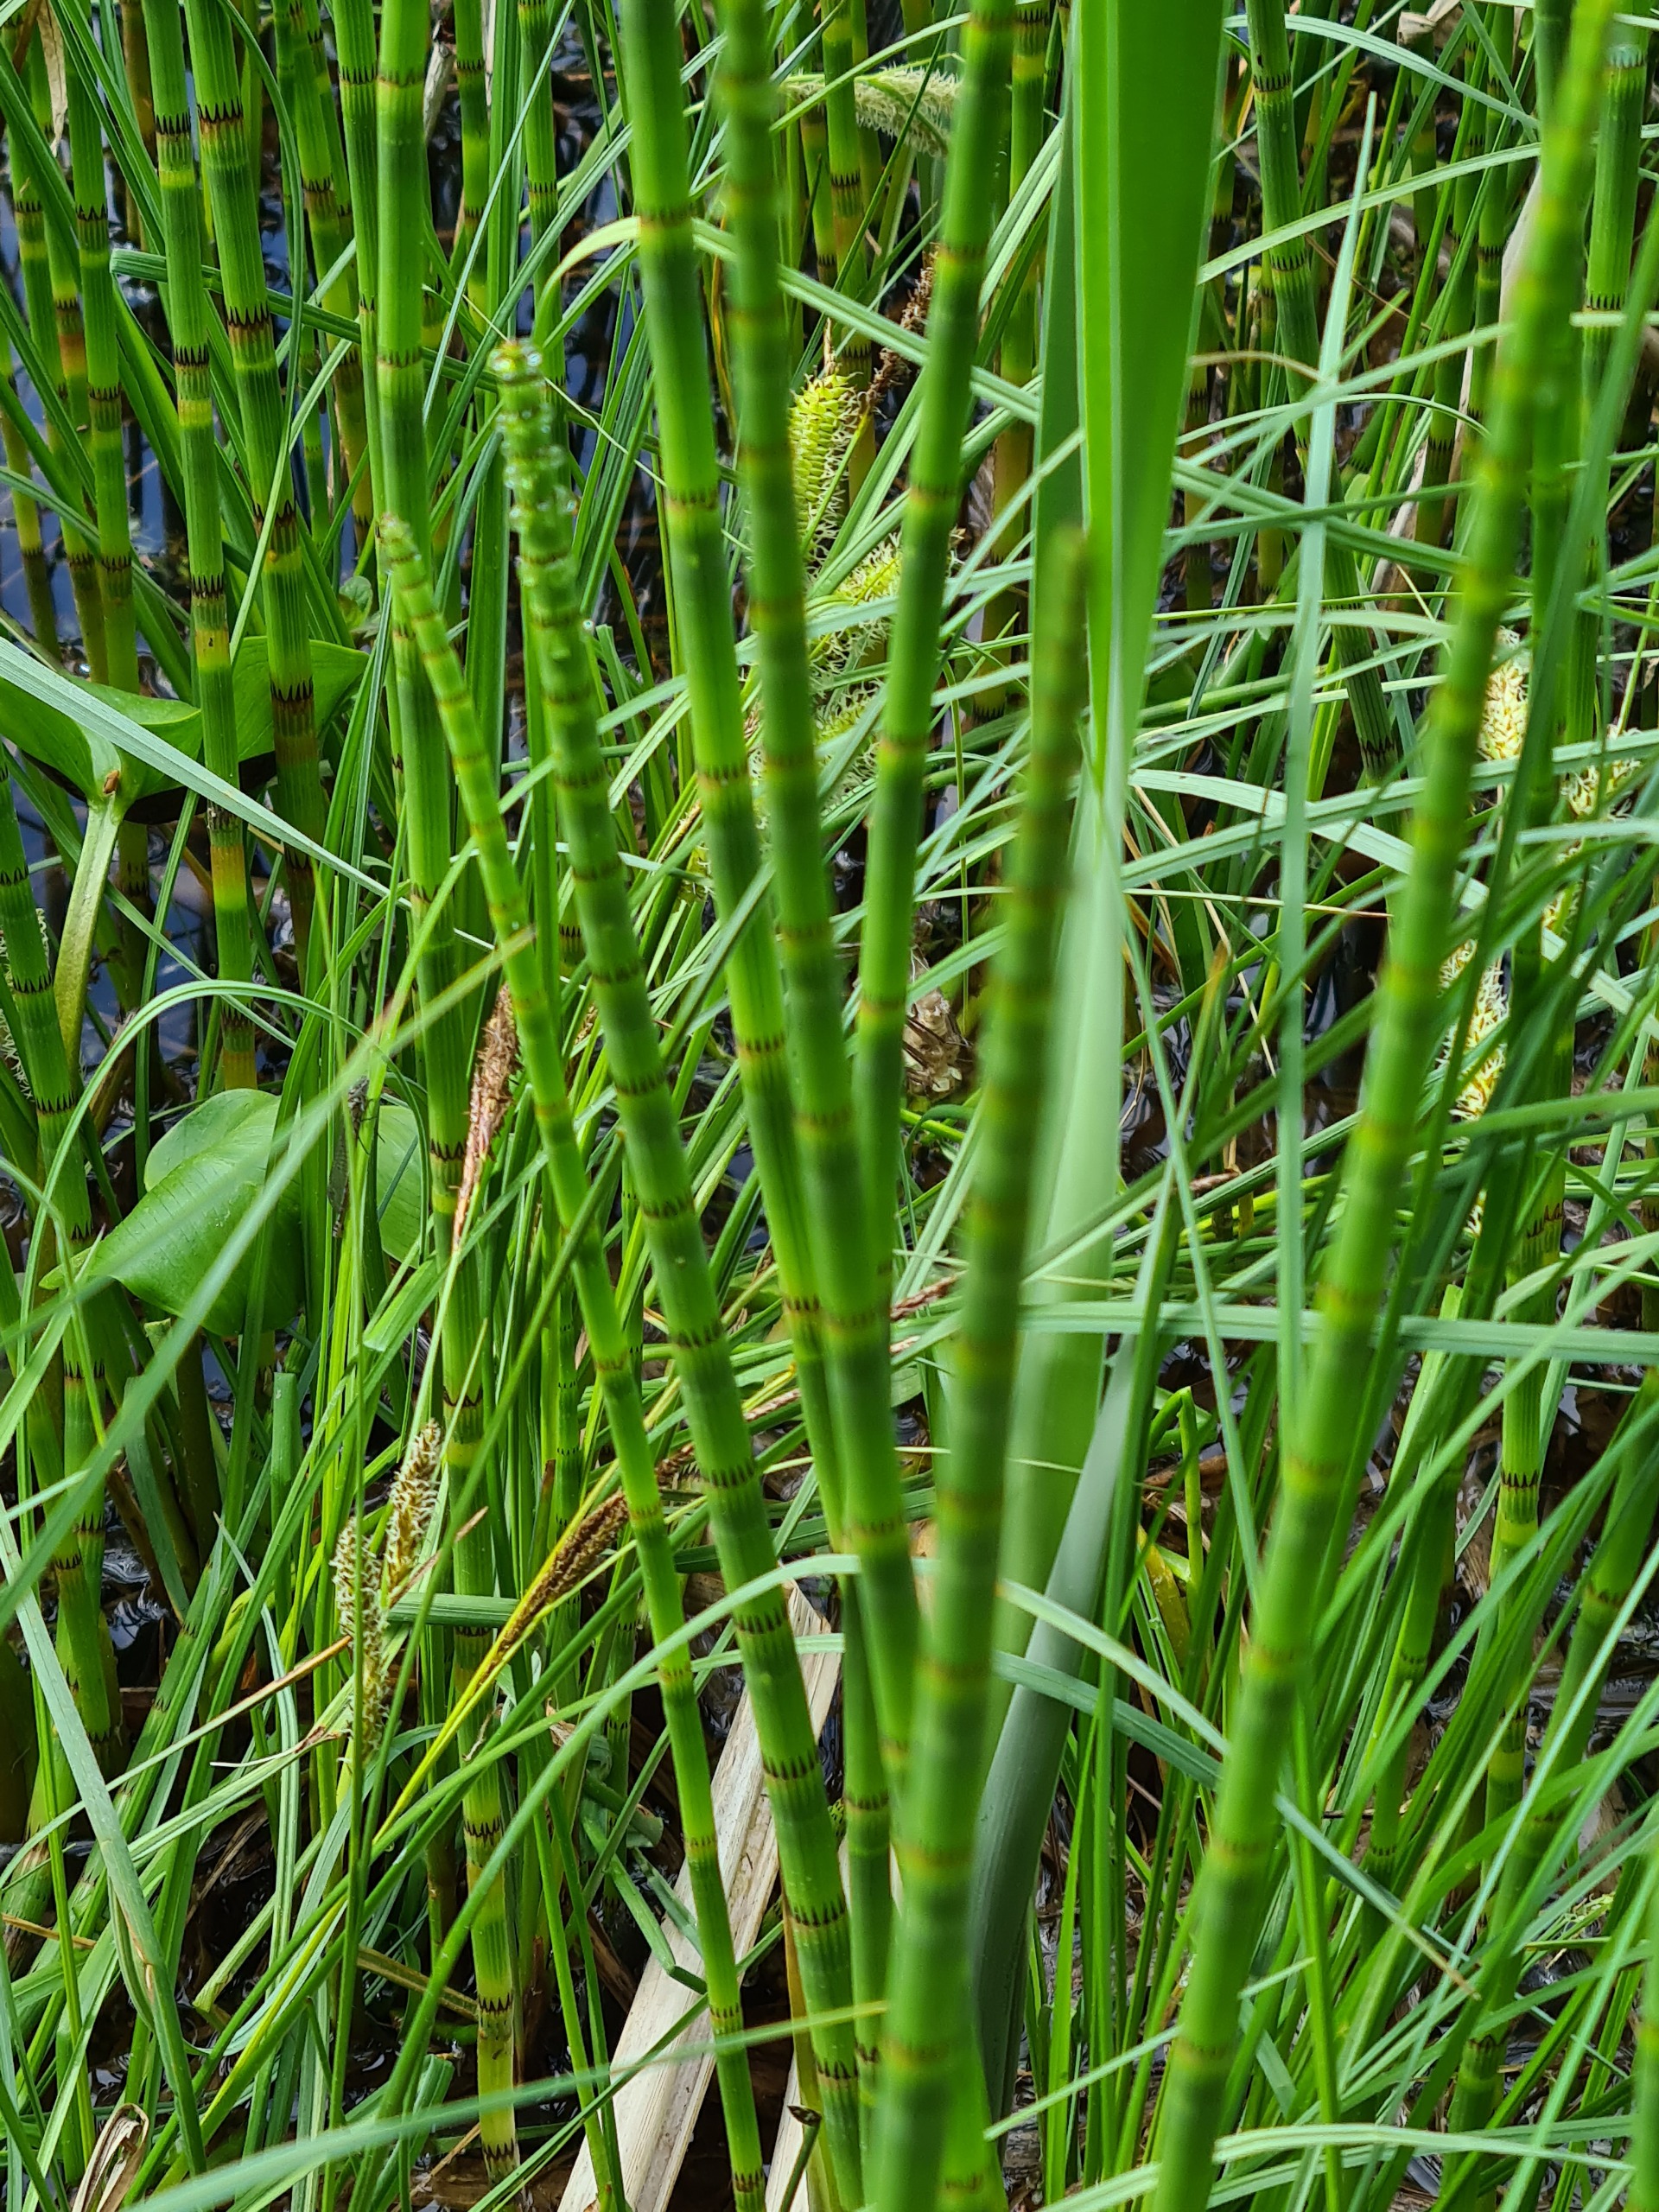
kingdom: Plantae
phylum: Tracheophyta
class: Polypodiopsida
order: Equisetales
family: Equisetaceae
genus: Equisetum
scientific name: Equisetum fluviatile
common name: Dynd-padderok
